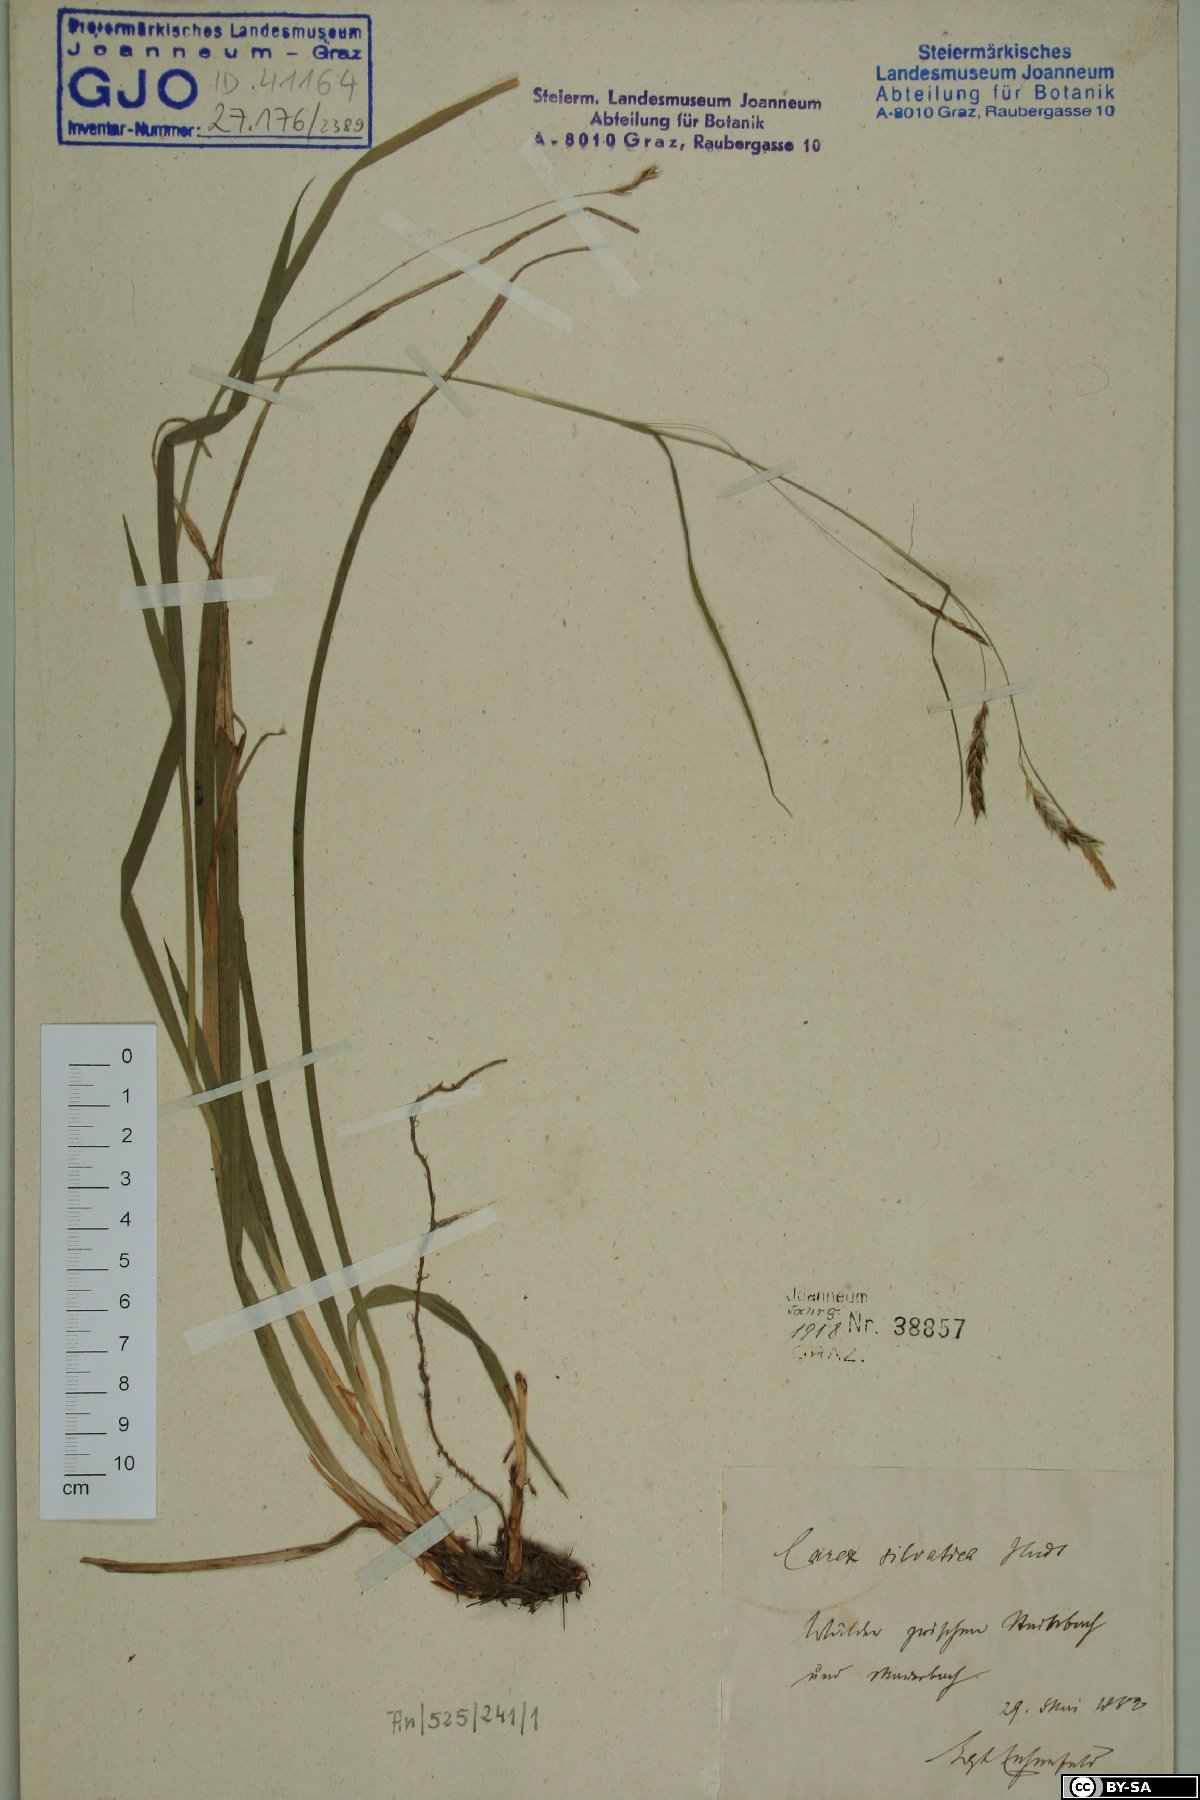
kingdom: Plantae
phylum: Tracheophyta
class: Liliopsida
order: Poales
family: Cyperaceae
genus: Carex
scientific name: Carex sylvatica
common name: Wood-sedge
